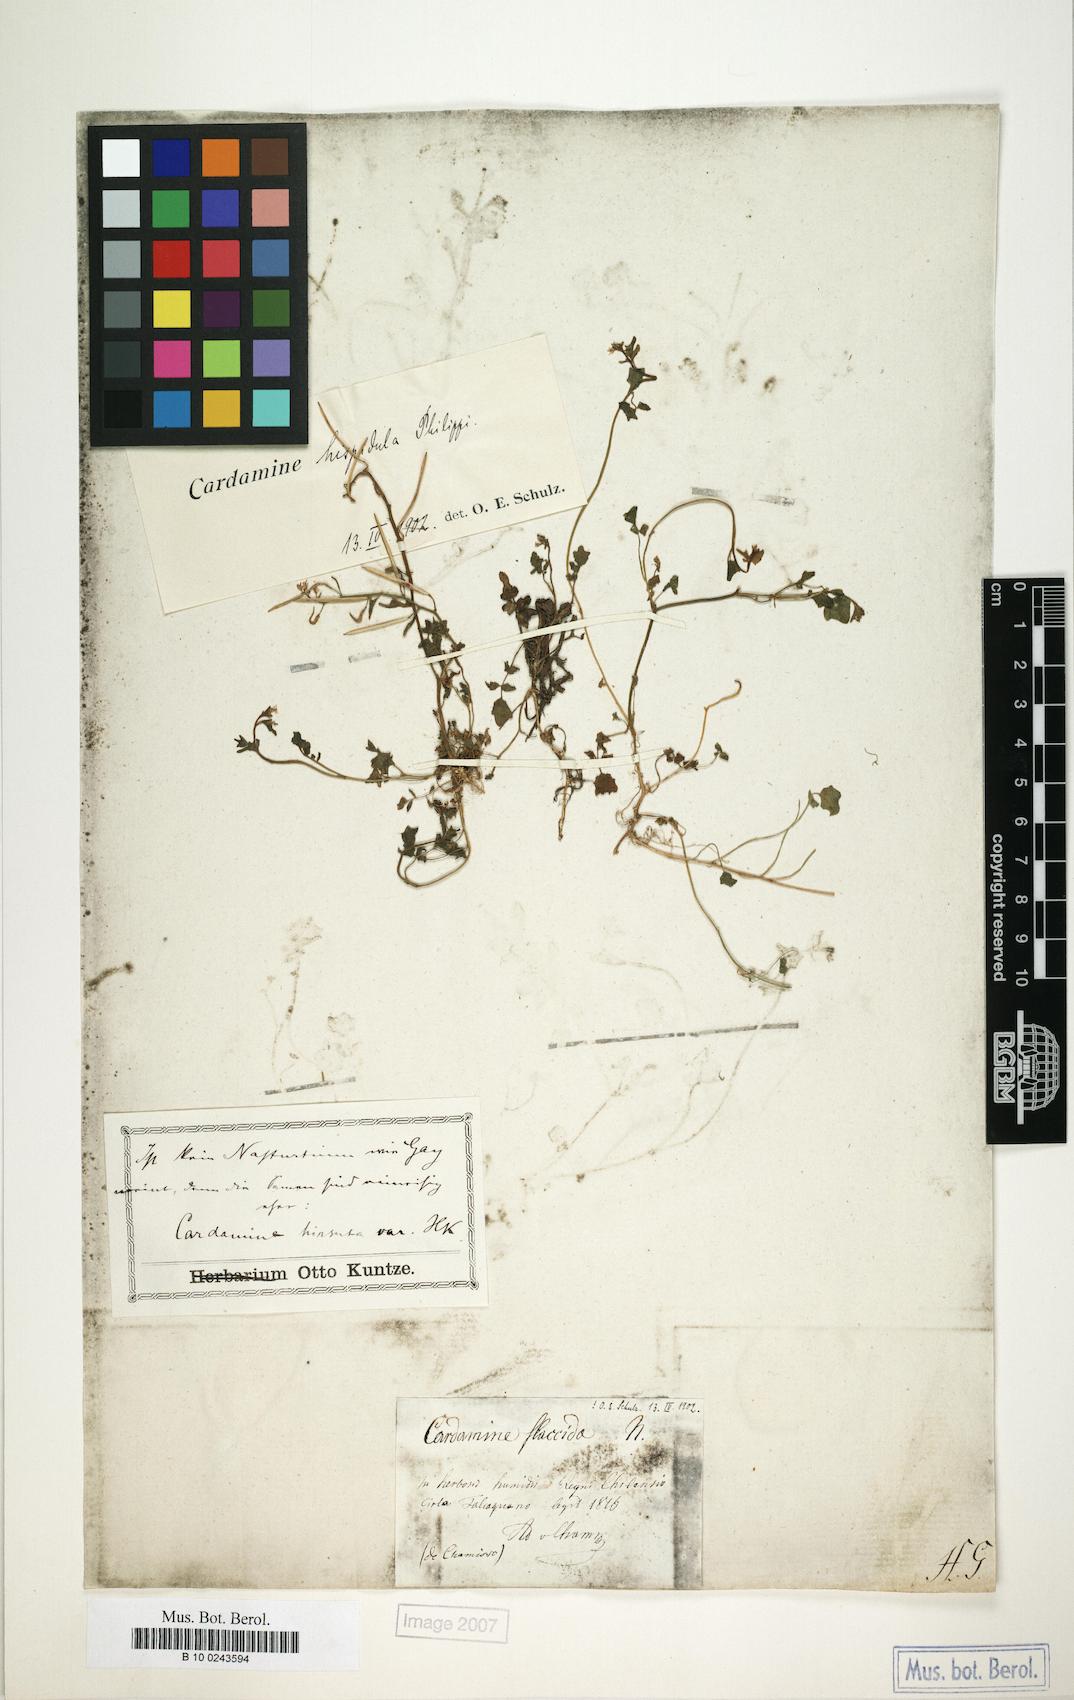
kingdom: Plantae
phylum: Tracheophyta
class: Magnoliopsida
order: Brassicales
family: Brassicaceae
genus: Cardamine
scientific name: Cardamine bonariensis
